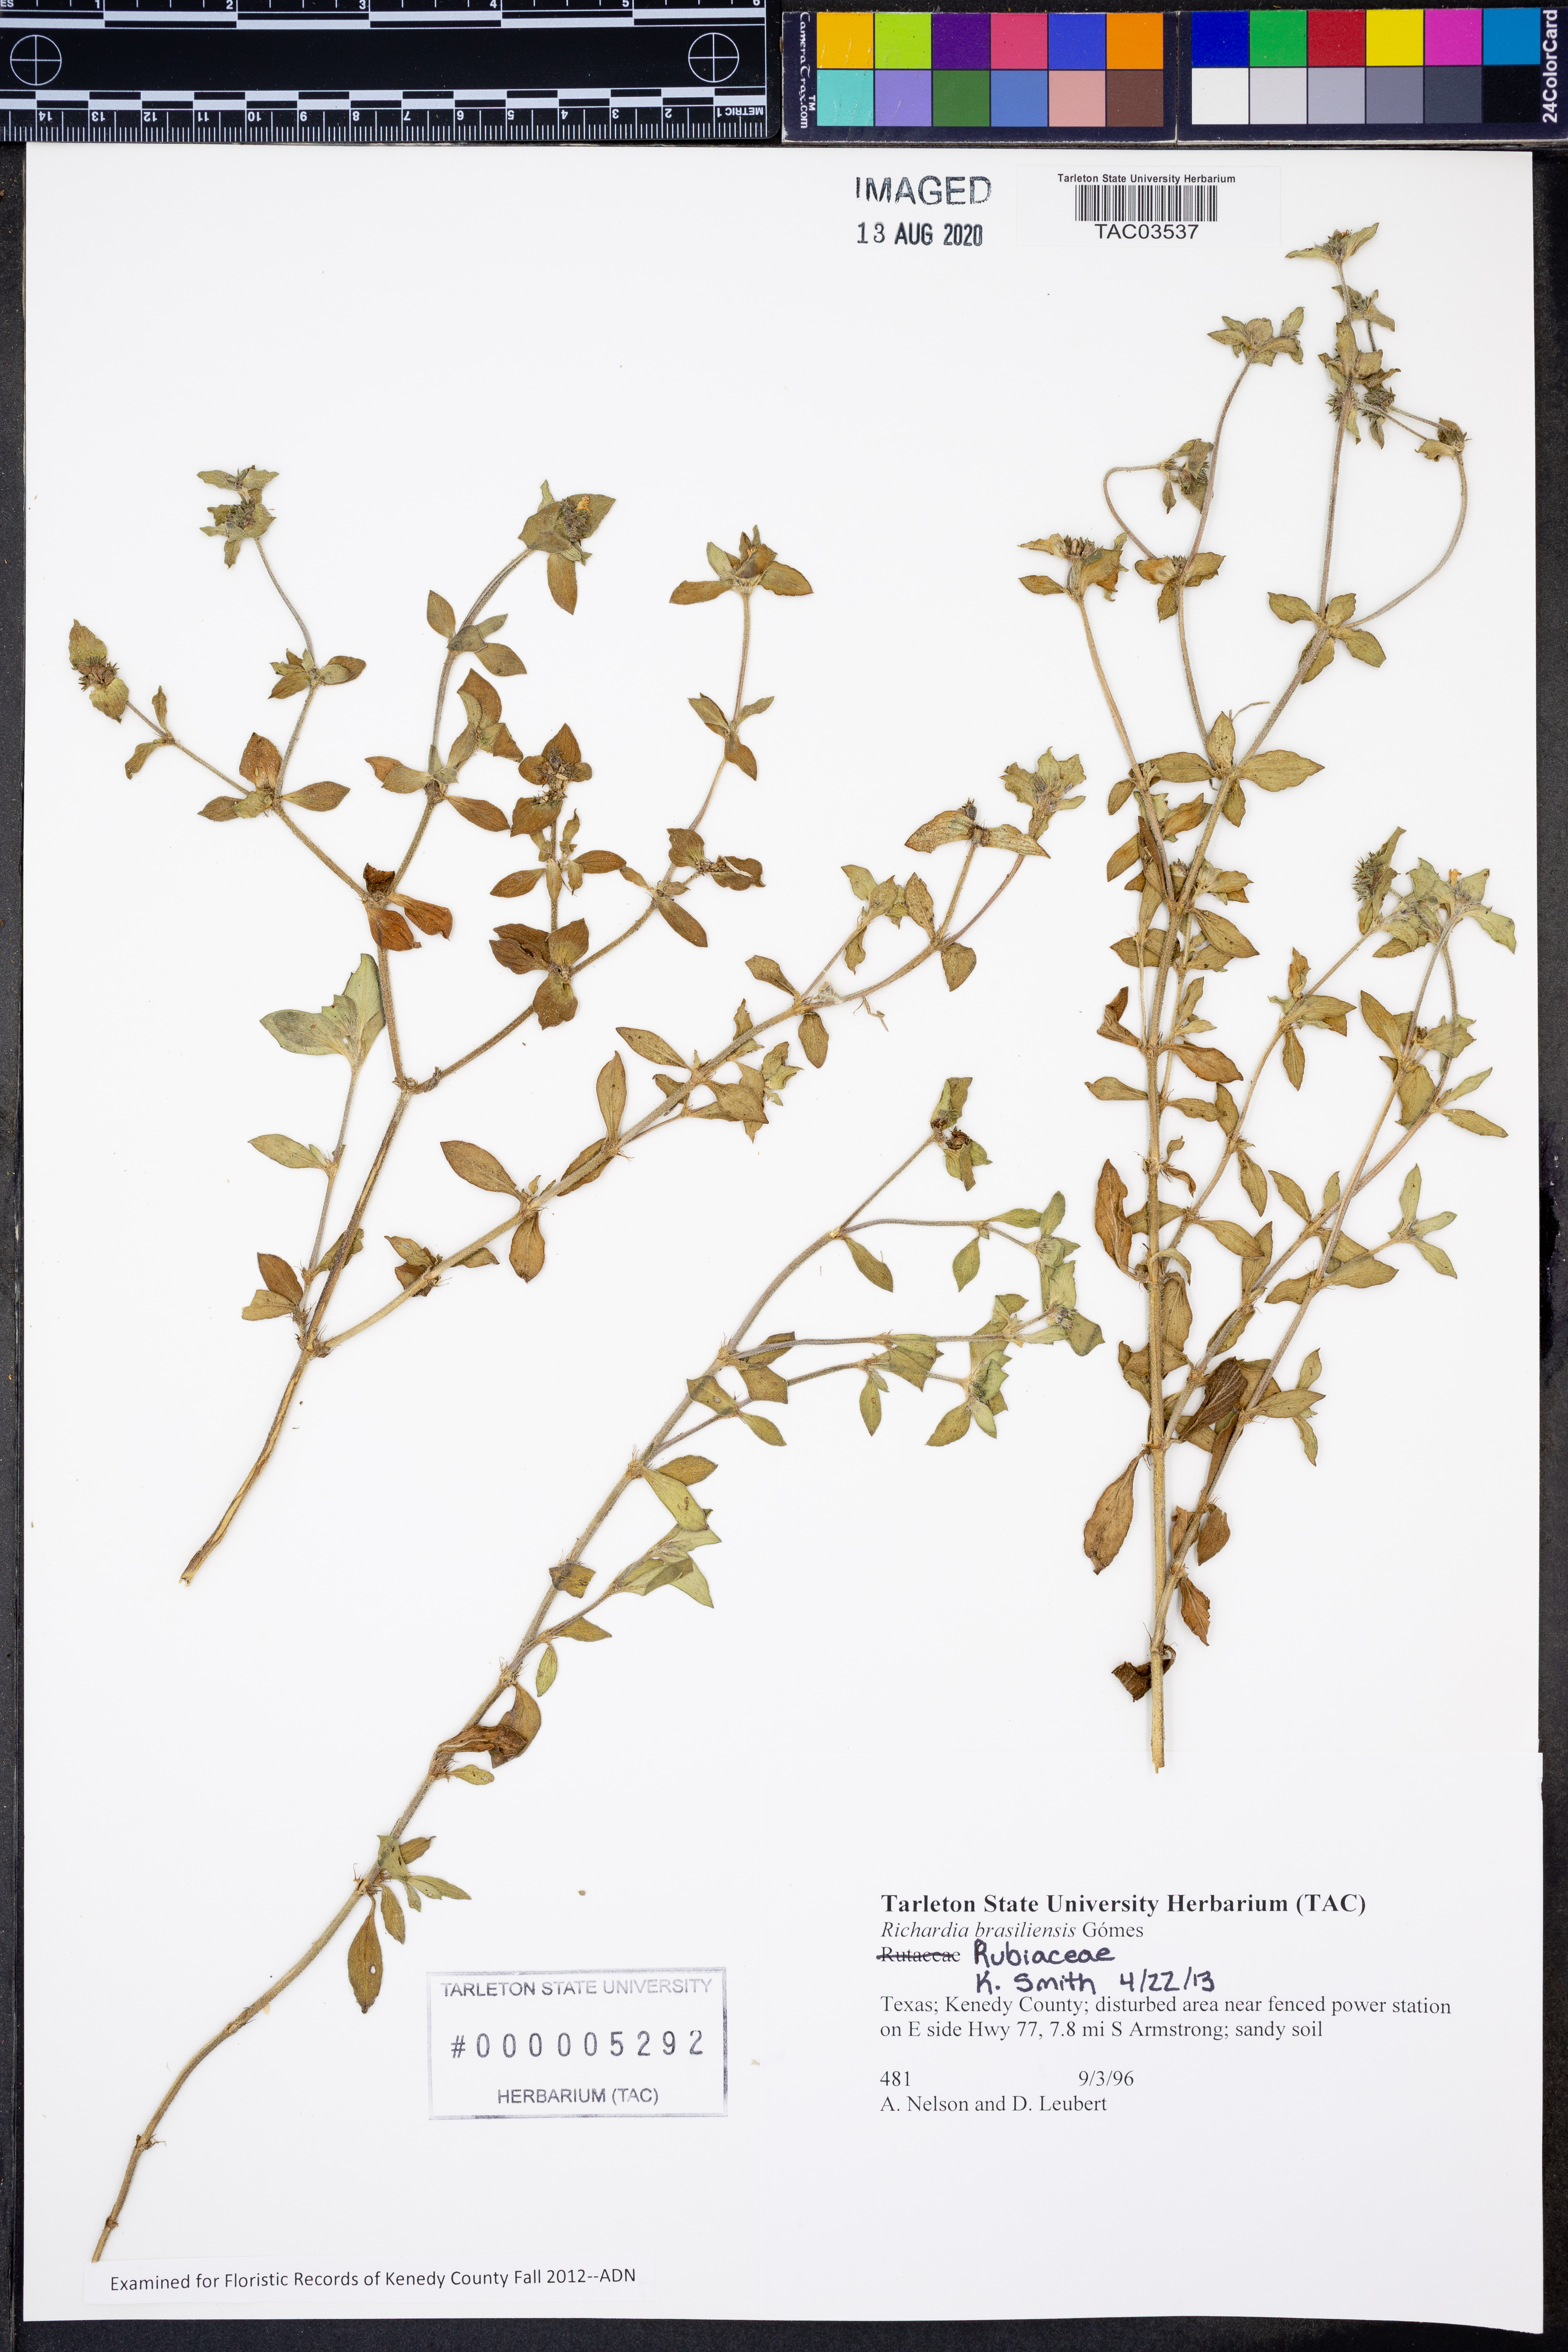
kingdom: Plantae
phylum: Tracheophyta
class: Magnoliopsida
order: Gentianales
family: Rubiaceae
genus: Richardia
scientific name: Richardia brasiliensis
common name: Tropical mexican clover
